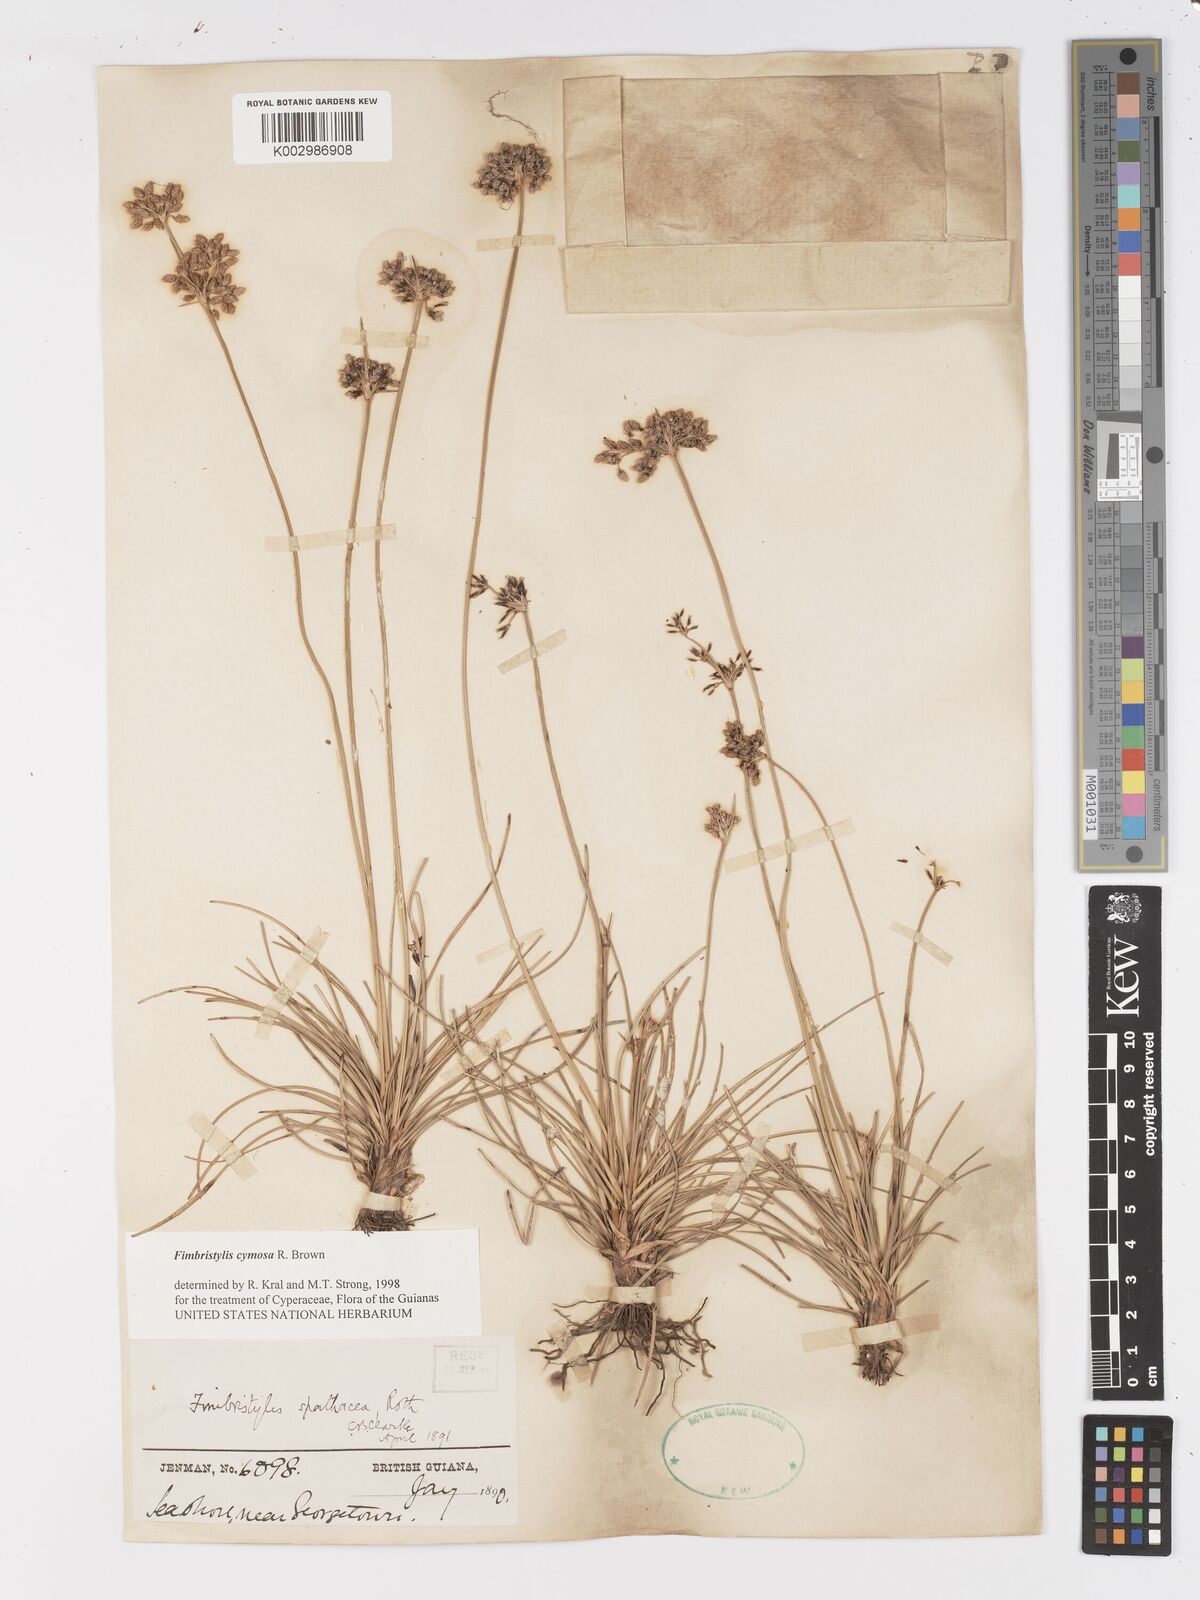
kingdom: Plantae
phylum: Tracheophyta
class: Liliopsida
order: Poales
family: Cyperaceae
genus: Fimbristylis
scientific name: Fimbristylis cymosa
